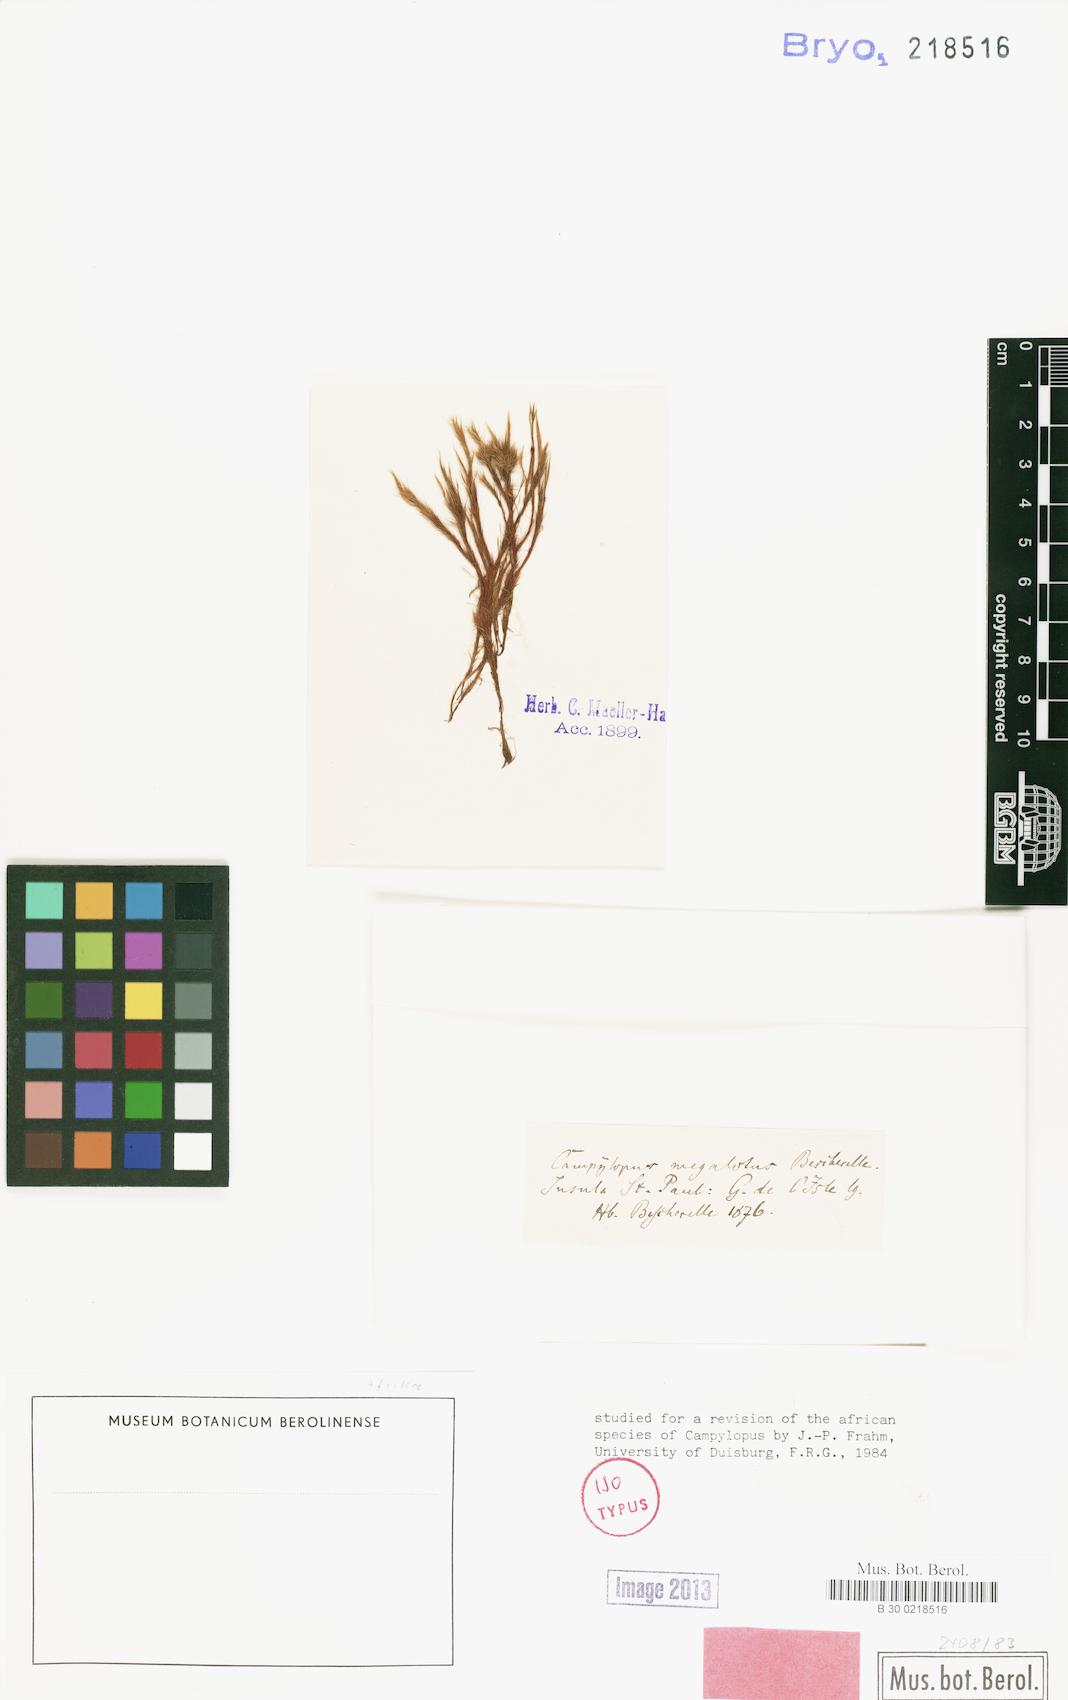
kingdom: Plantae
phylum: Bryophyta
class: Bryopsida
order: Dicranales
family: Leucobryaceae
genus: Campylopus
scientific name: Campylopus megalotus
